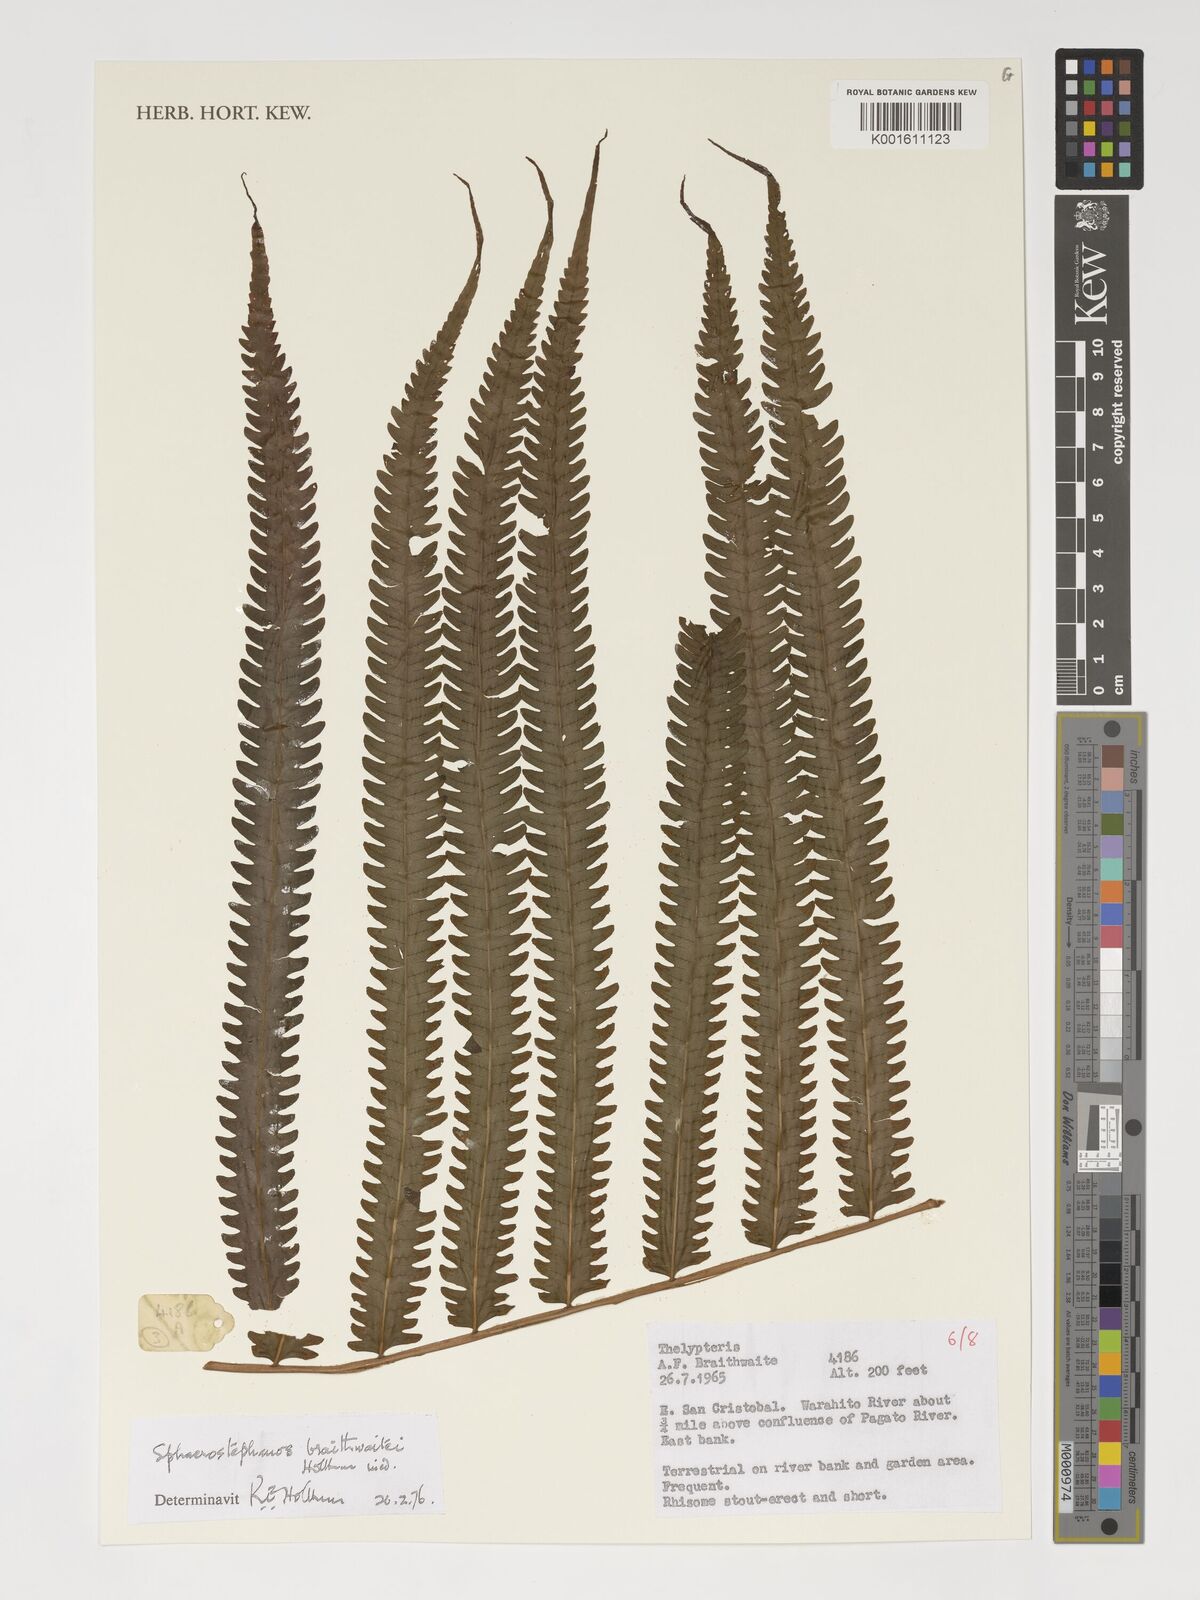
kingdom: Plantae
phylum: Tracheophyta
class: Polypodiopsida
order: Polypodiales
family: Thelypteridaceae
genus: Sphaerostephanos
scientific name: Sphaerostephanos braithwaitei
